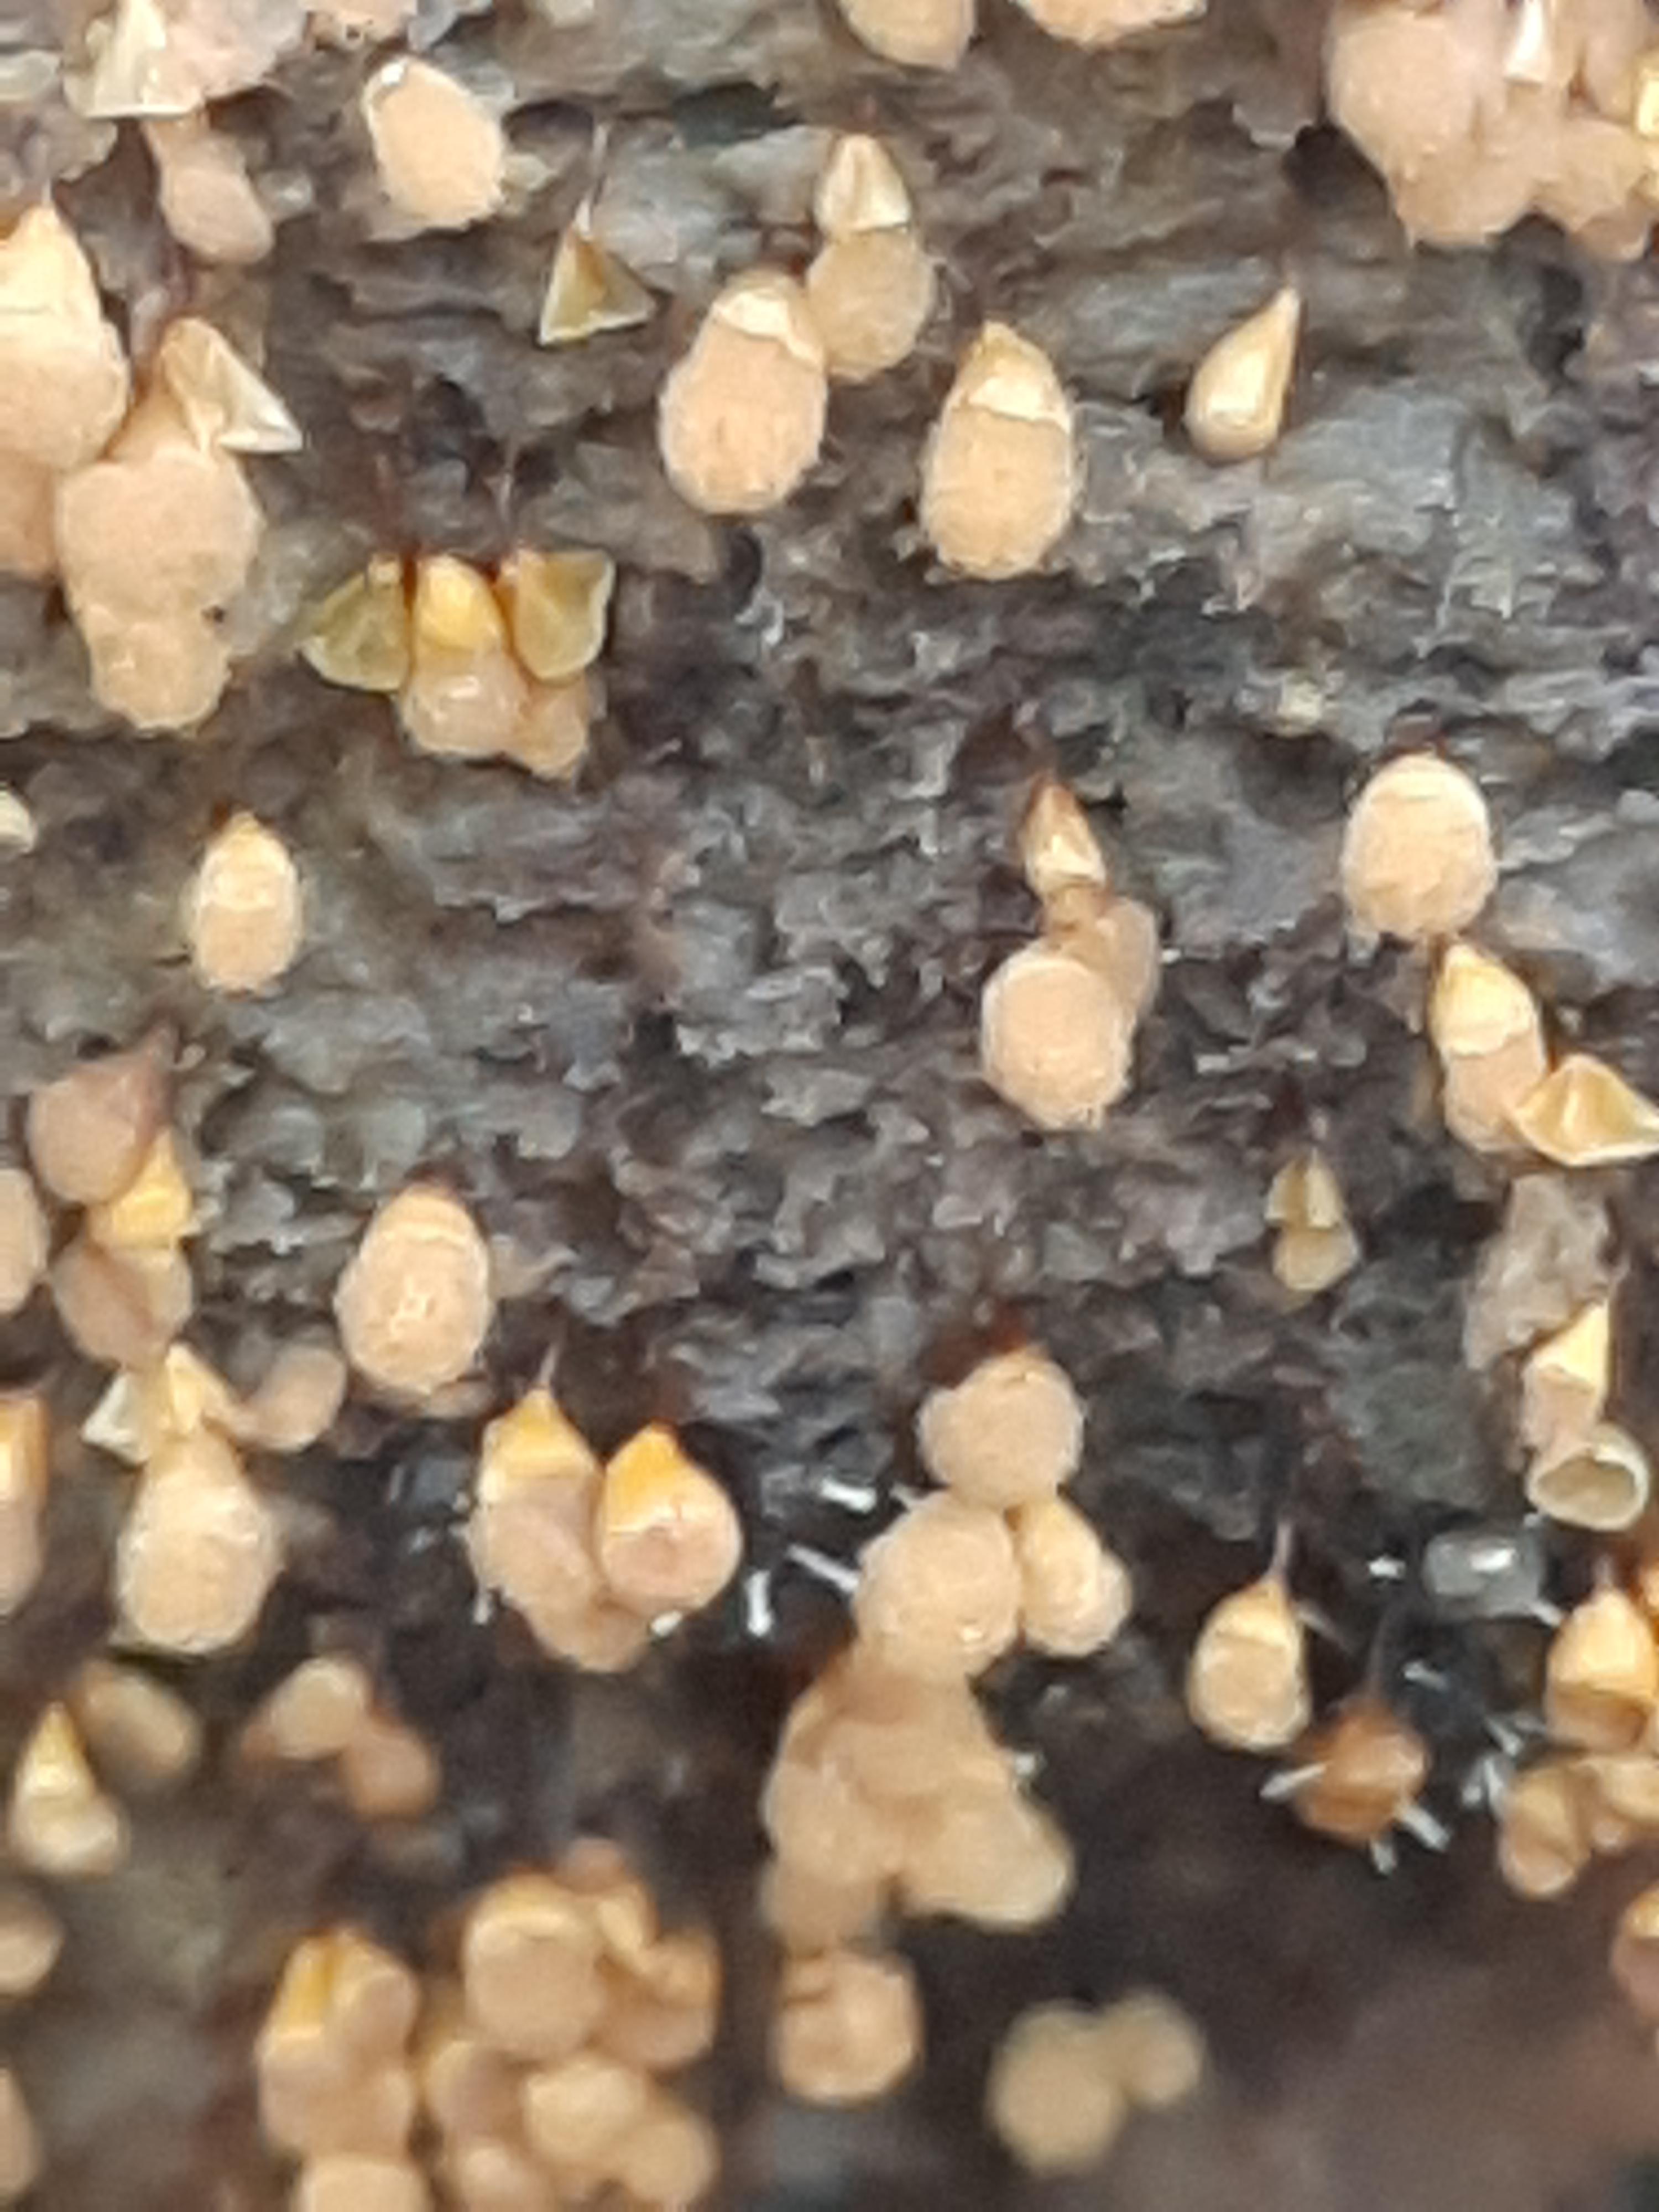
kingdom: Protozoa
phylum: Mycetozoa
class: Myxomycetes
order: Trichiales
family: Arcyriaceae
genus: Hemitrichia
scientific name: Hemitrichia clavata
